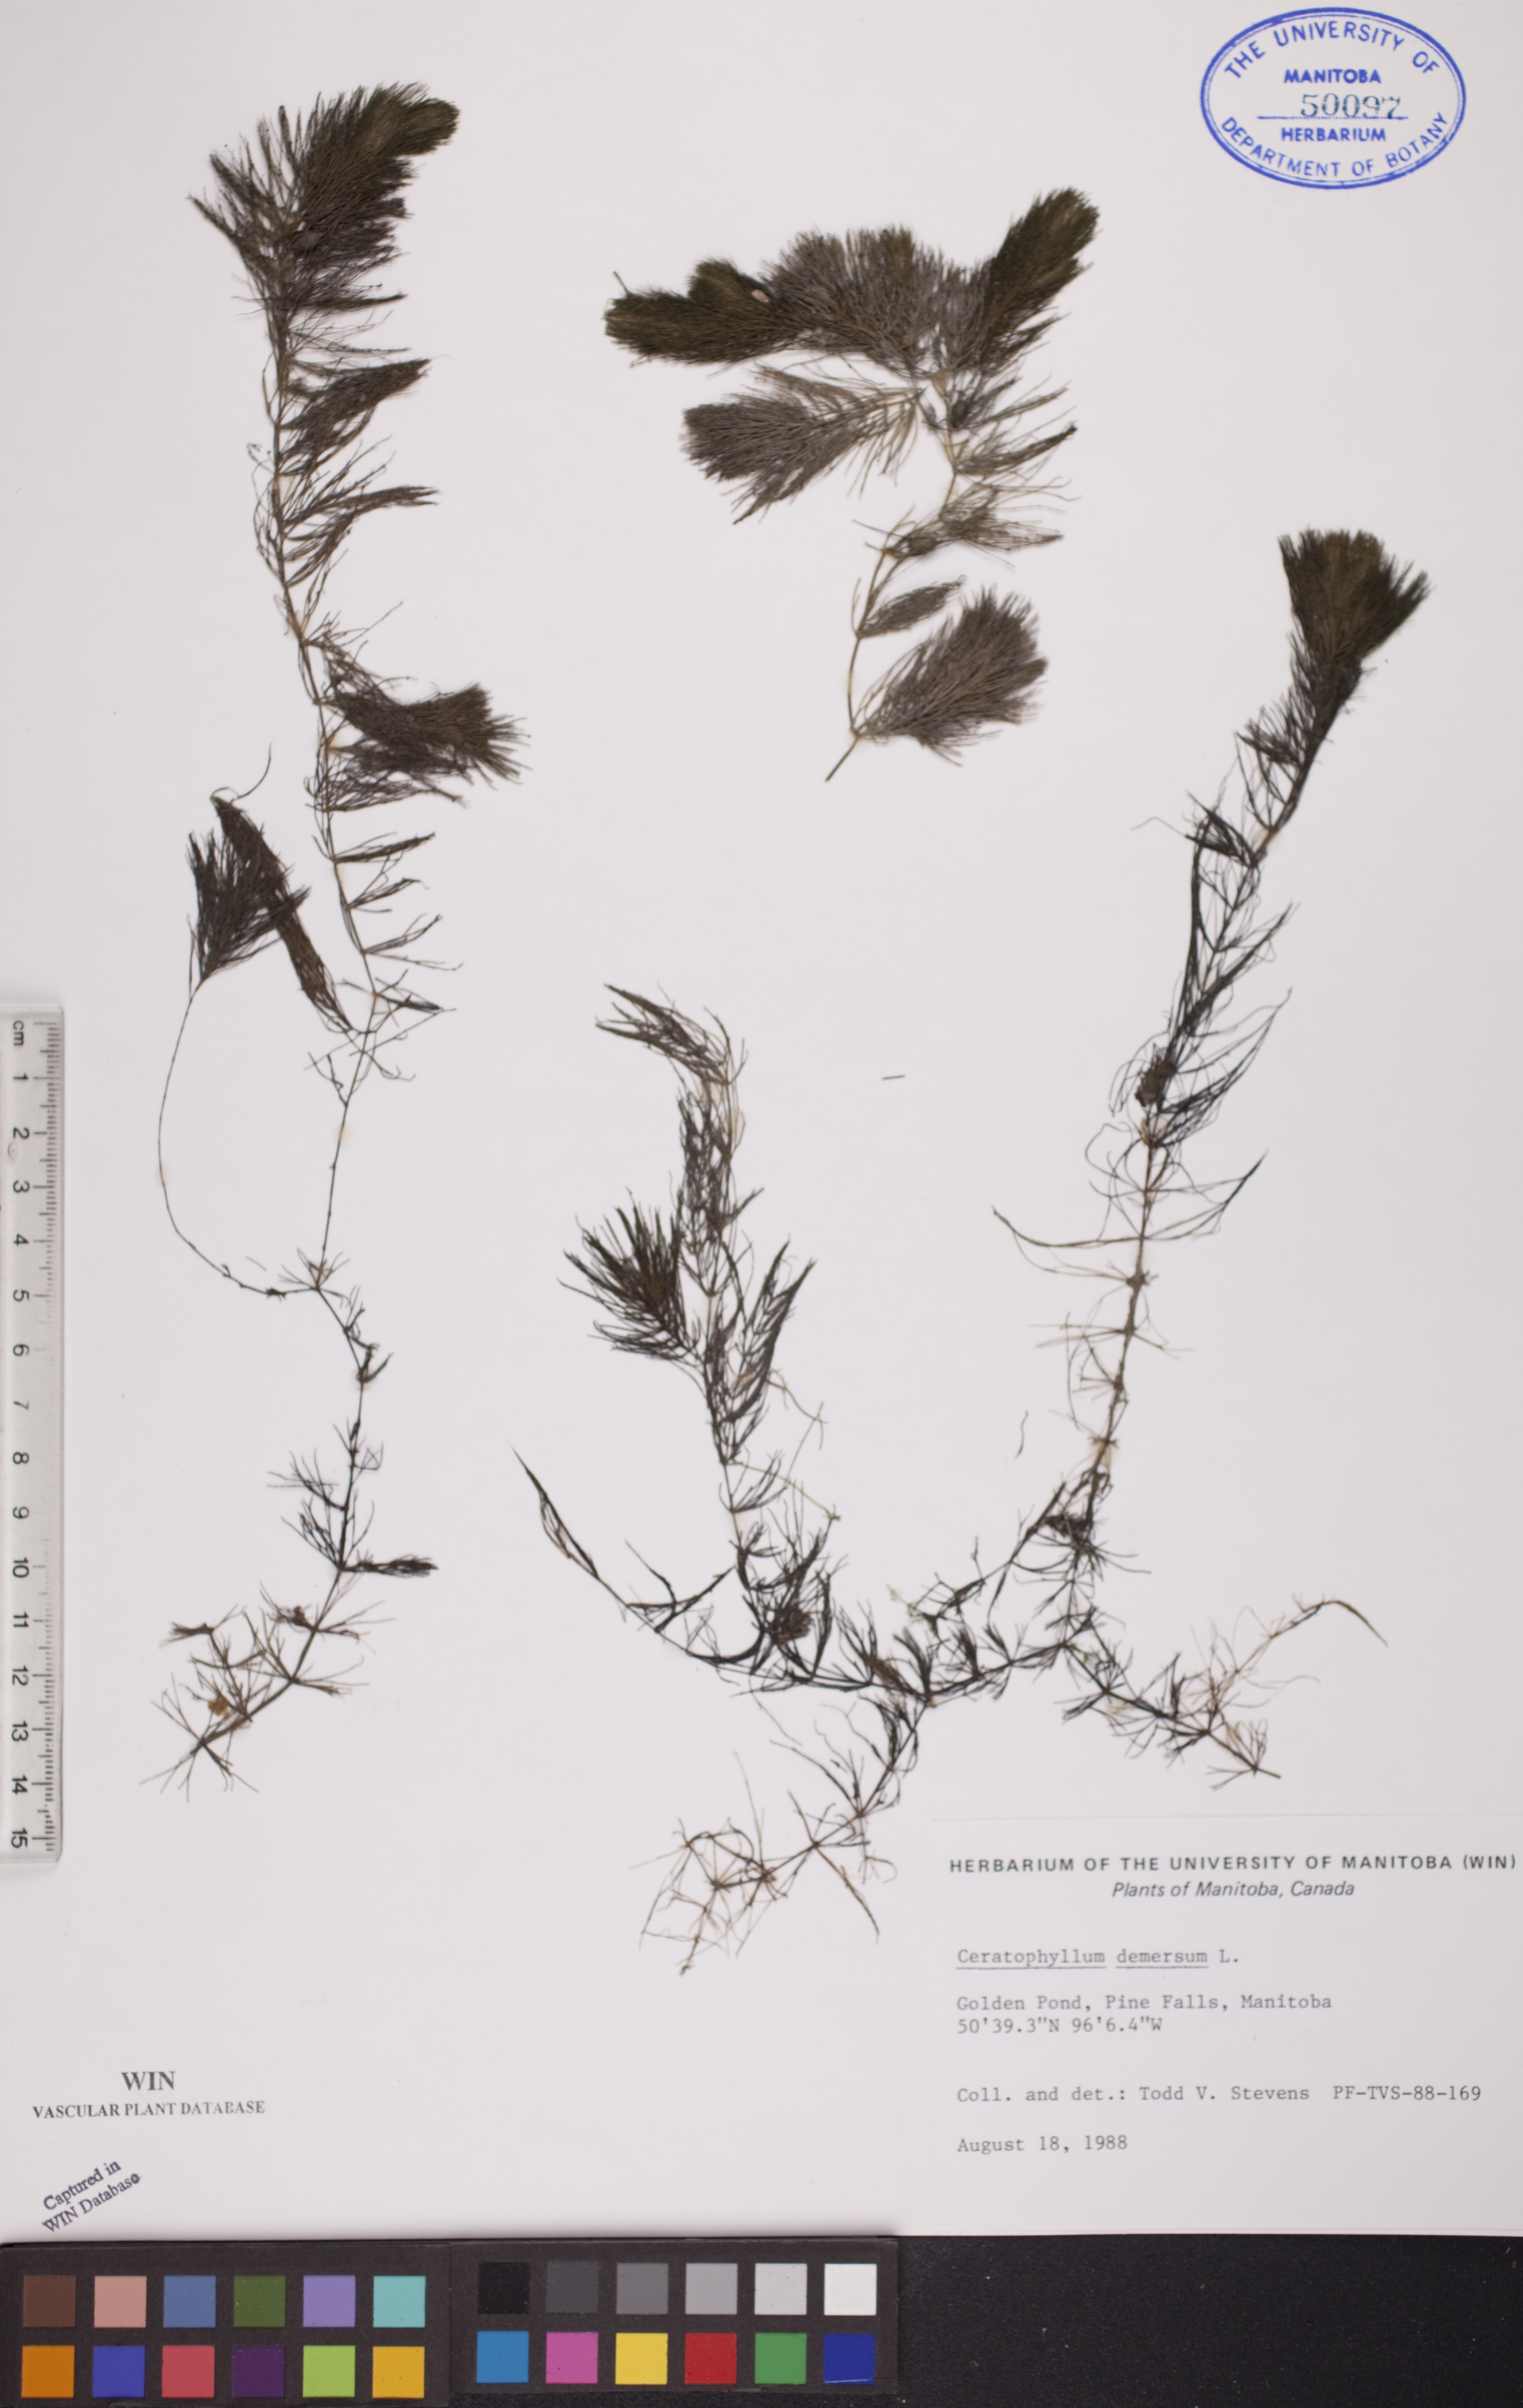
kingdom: Plantae
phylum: Tracheophyta
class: Magnoliopsida
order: Ceratophyllales
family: Ceratophyllaceae
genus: Ceratophyllum
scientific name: Ceratophyllum demersum
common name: Rigid hornwort
